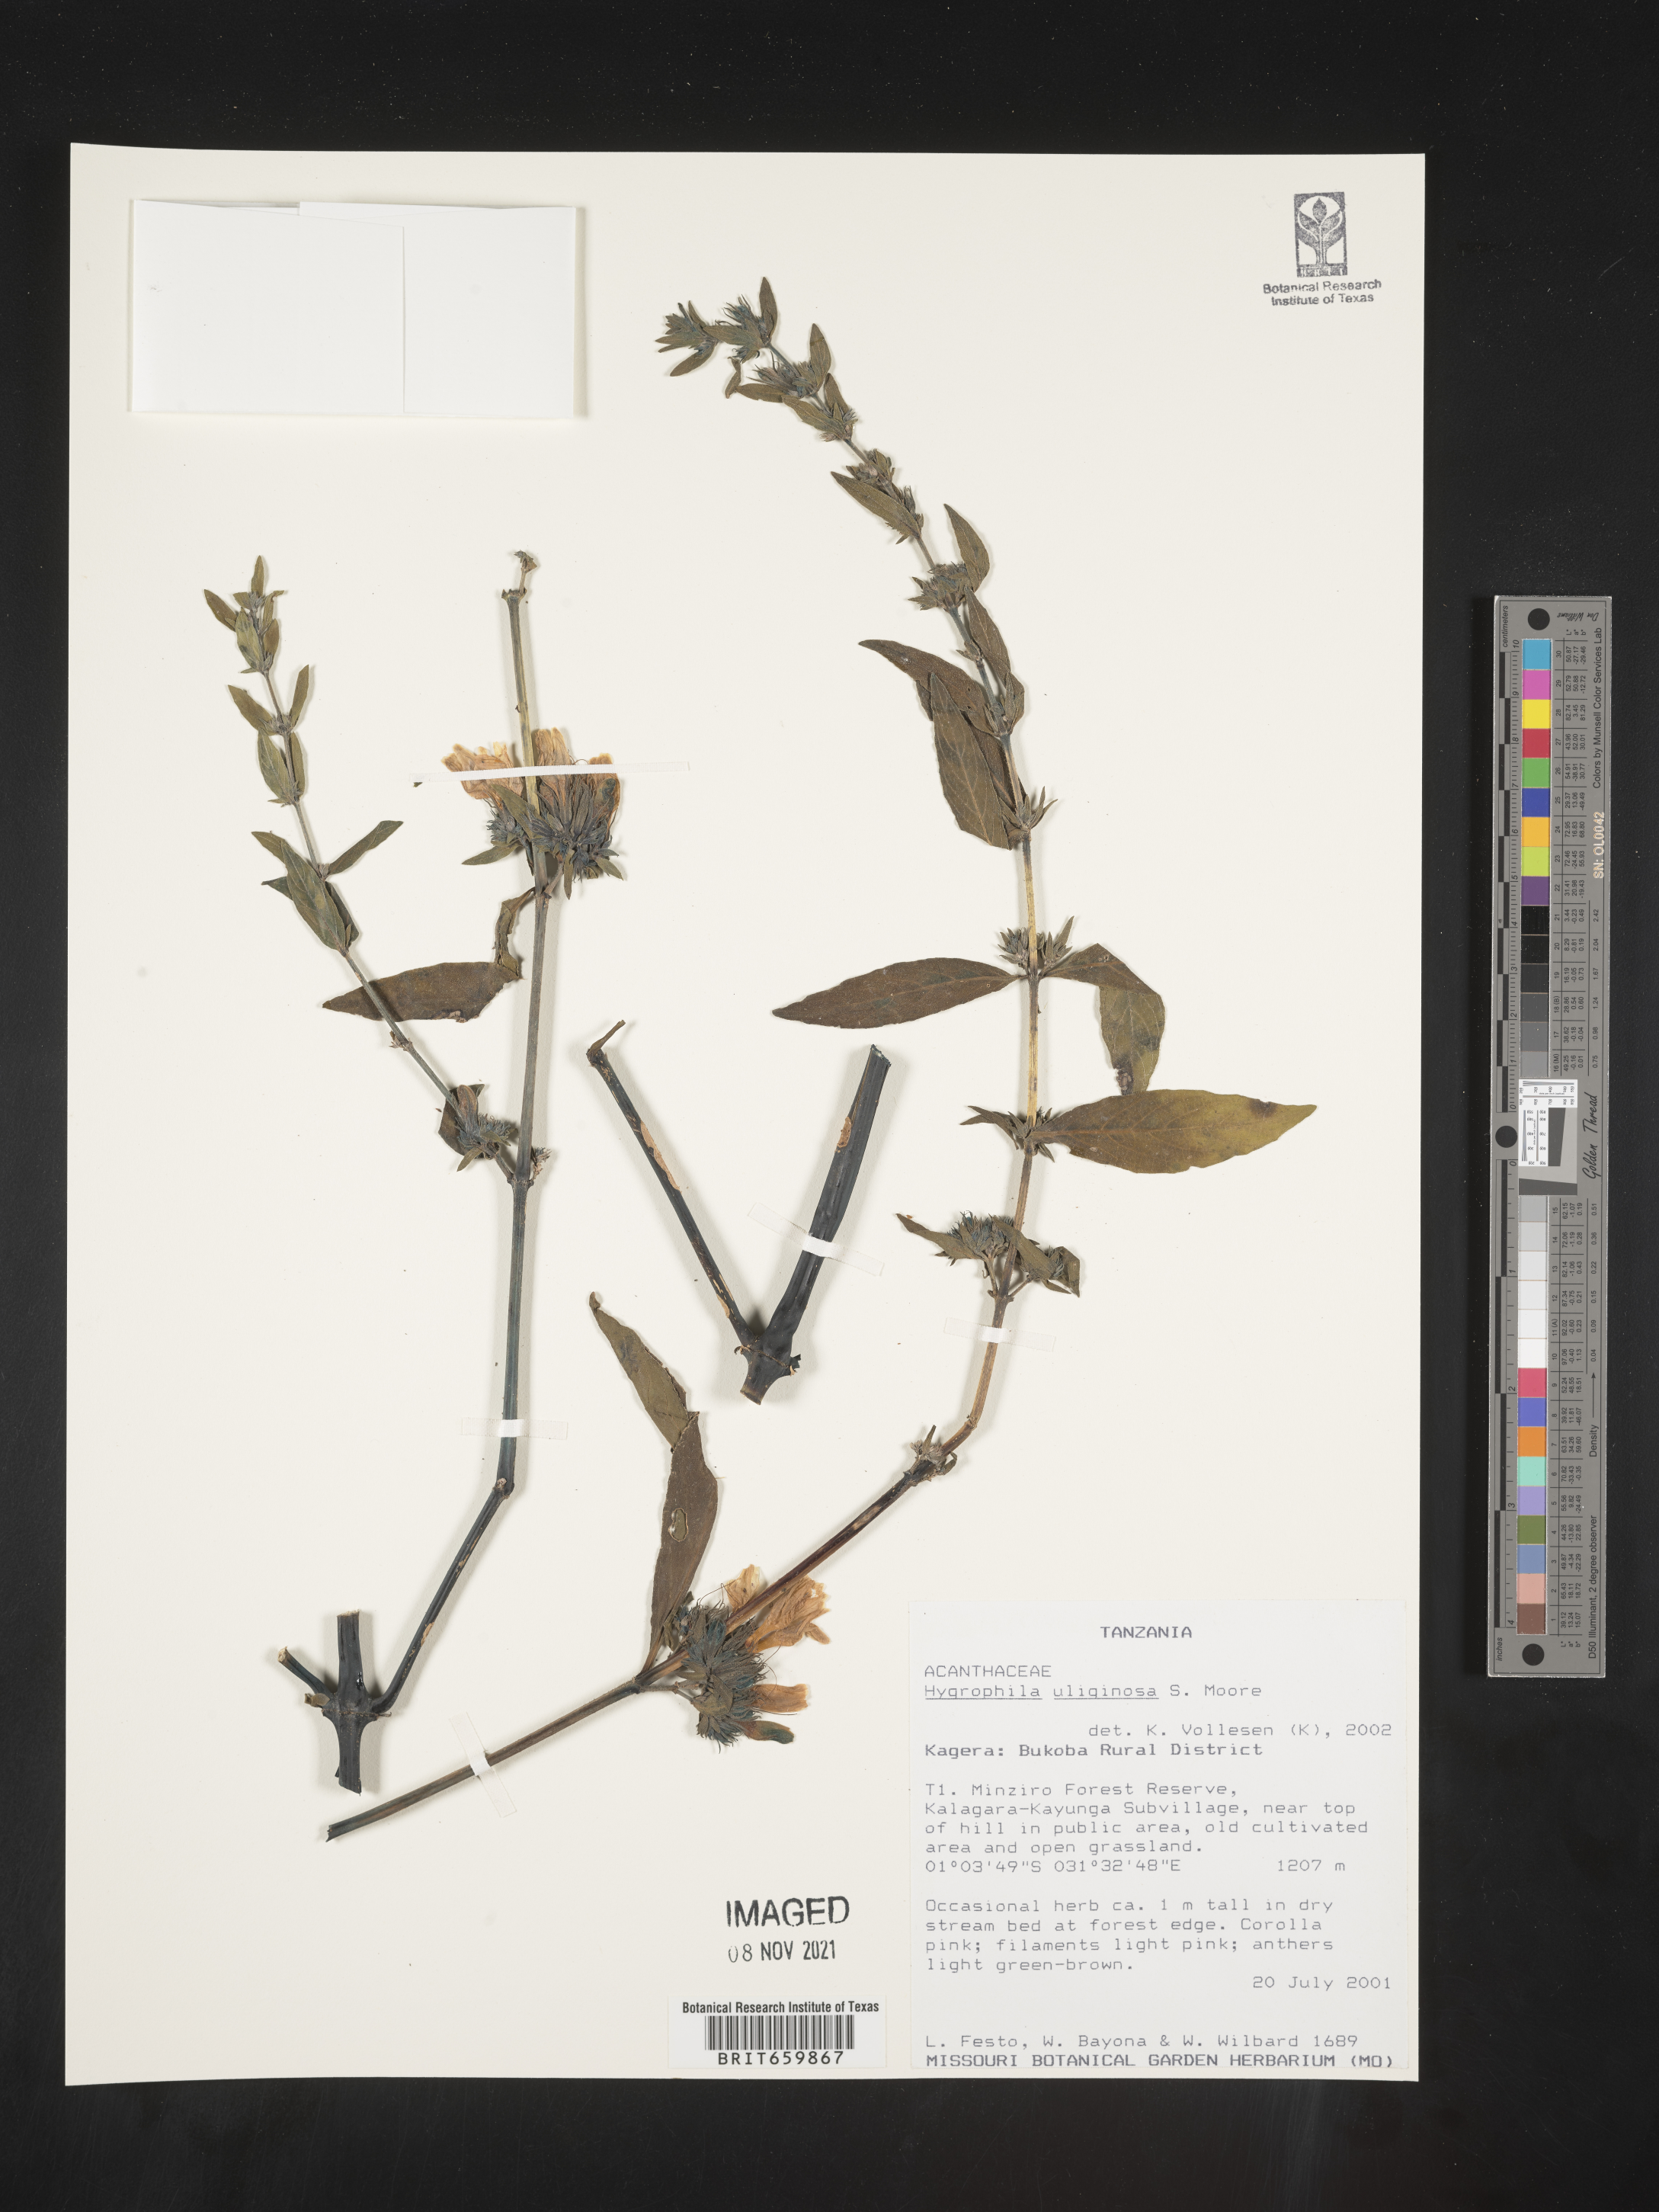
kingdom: Plantae
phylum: Tracheophyta
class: Magnoliopsida
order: Lamiales
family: Acanthaceae
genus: Hygrophila
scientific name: Hygrophila
